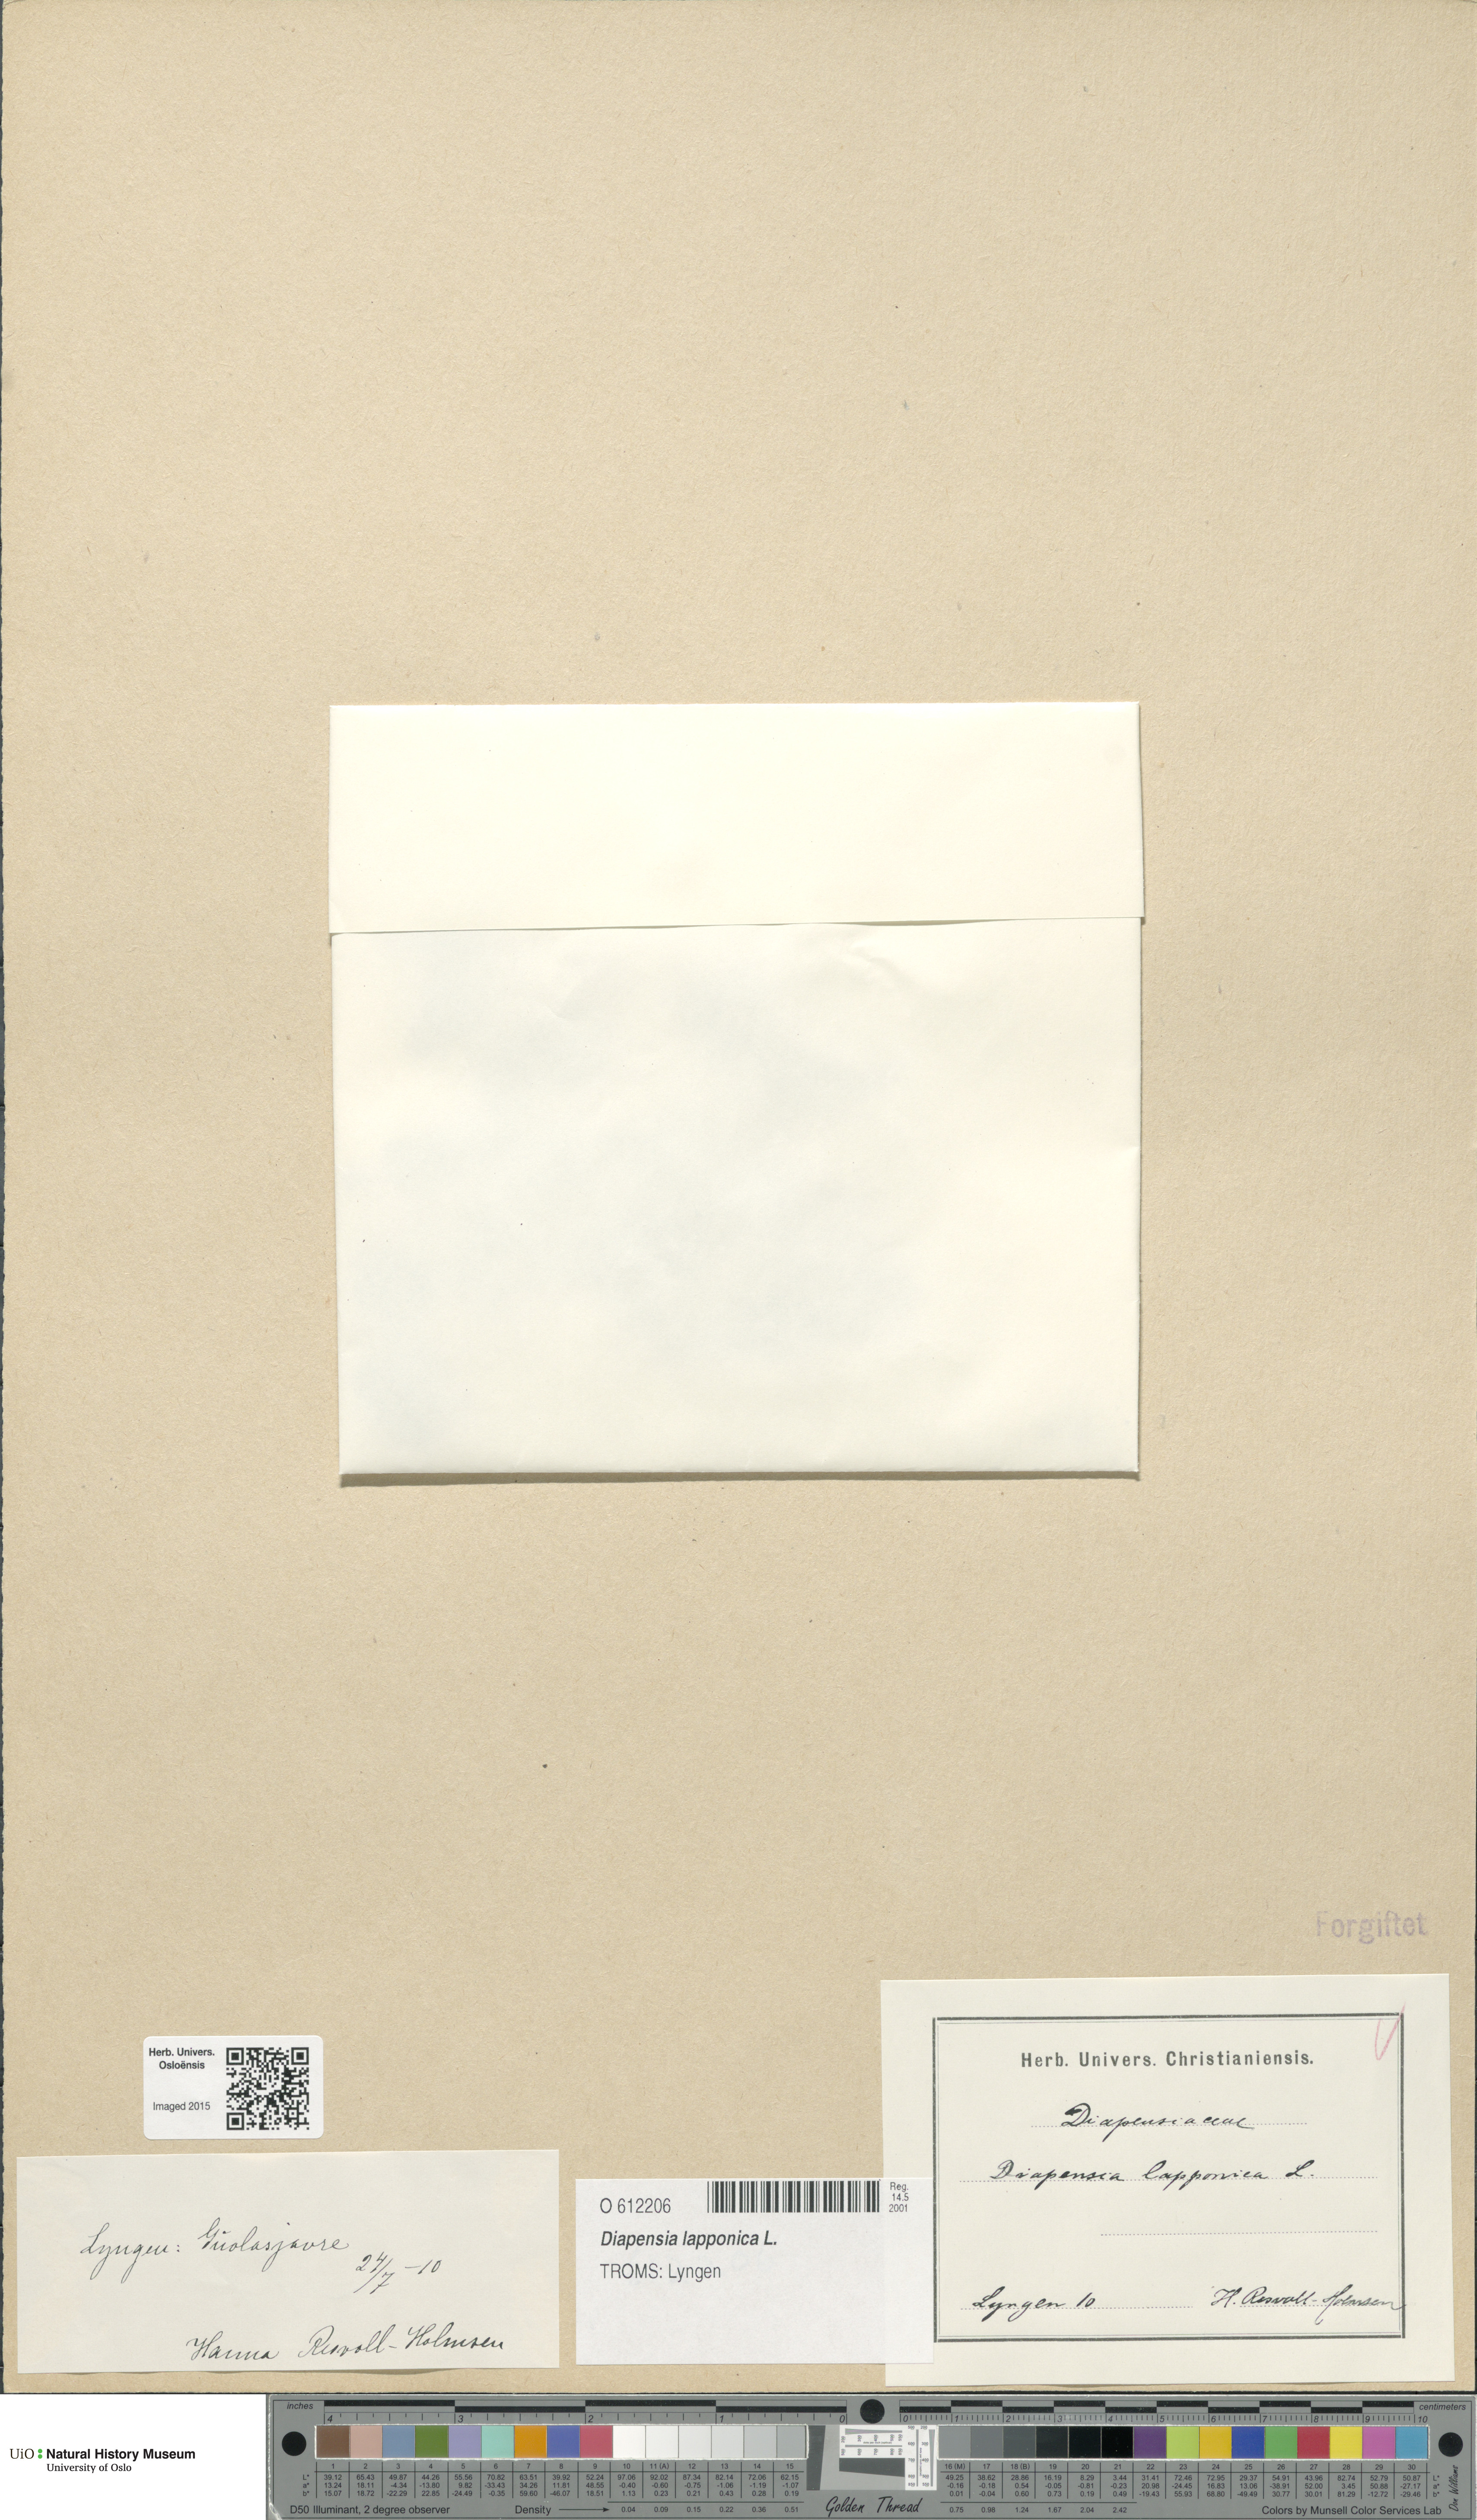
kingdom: Plantae
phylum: Tracheophyta
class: Magnoliopsida
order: Ericales
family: Diapensiaceae
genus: Diapensia
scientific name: Diapensia lapponica
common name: Diapensia
